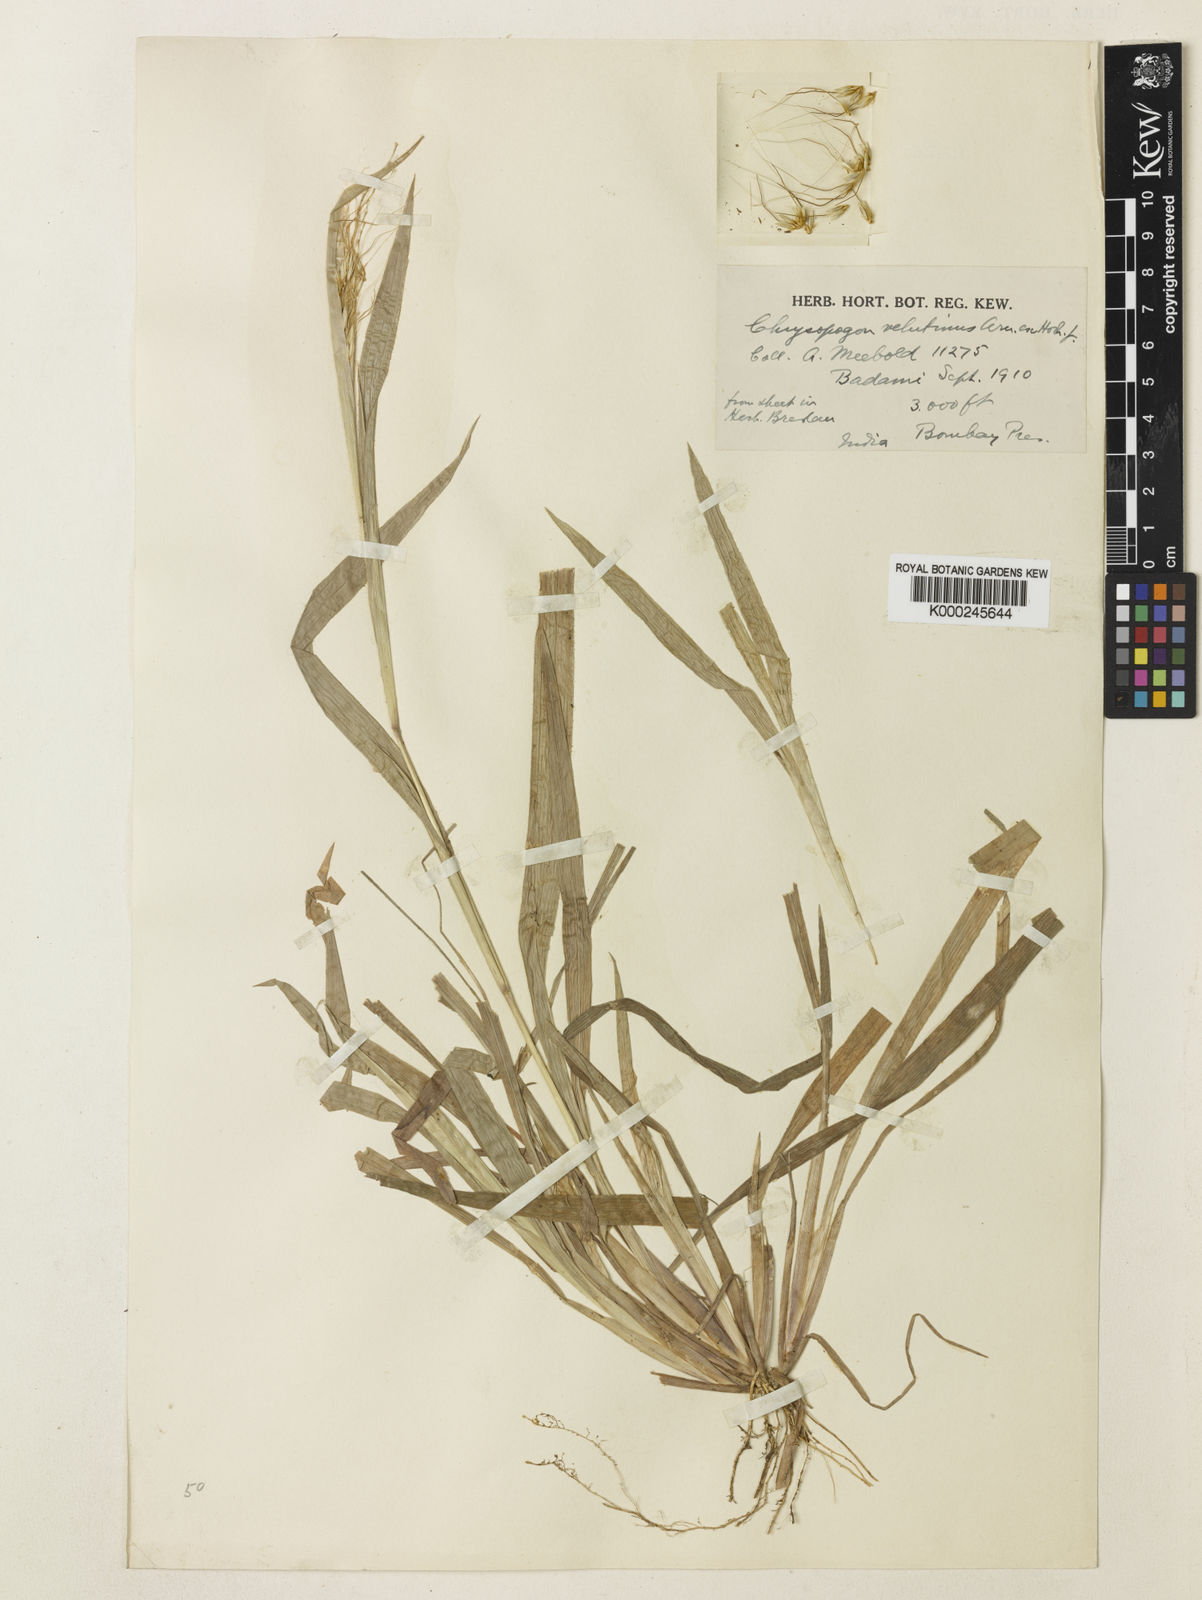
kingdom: Plantae
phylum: Tracheophyta
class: Liliopsida
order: Poales
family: Poaceae
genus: Chrysopogon
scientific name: Chrysopogon velutinus
